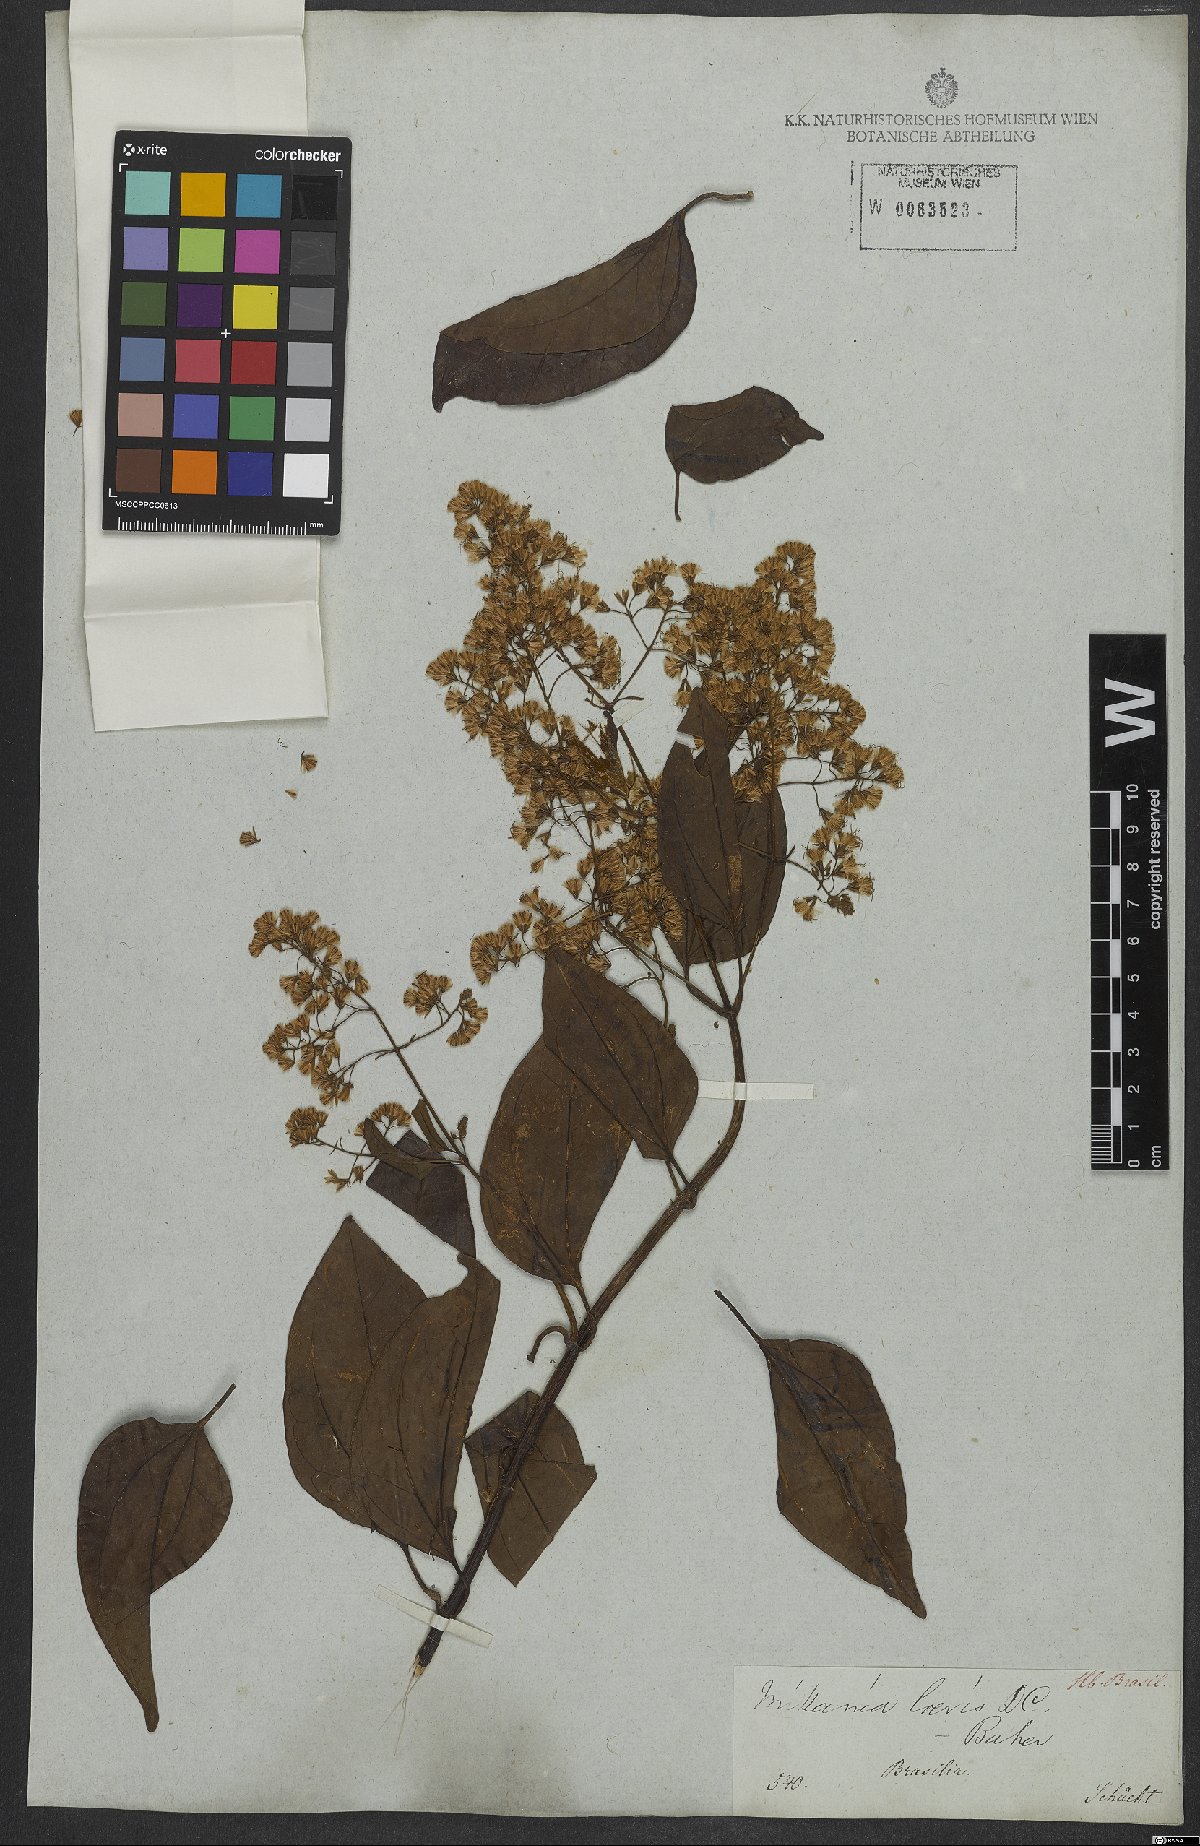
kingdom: Plantae
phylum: Tracheophyta
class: Magnoliopsida
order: Asterales
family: Asteraceae
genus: Mikania
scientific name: Mikania trinervis
